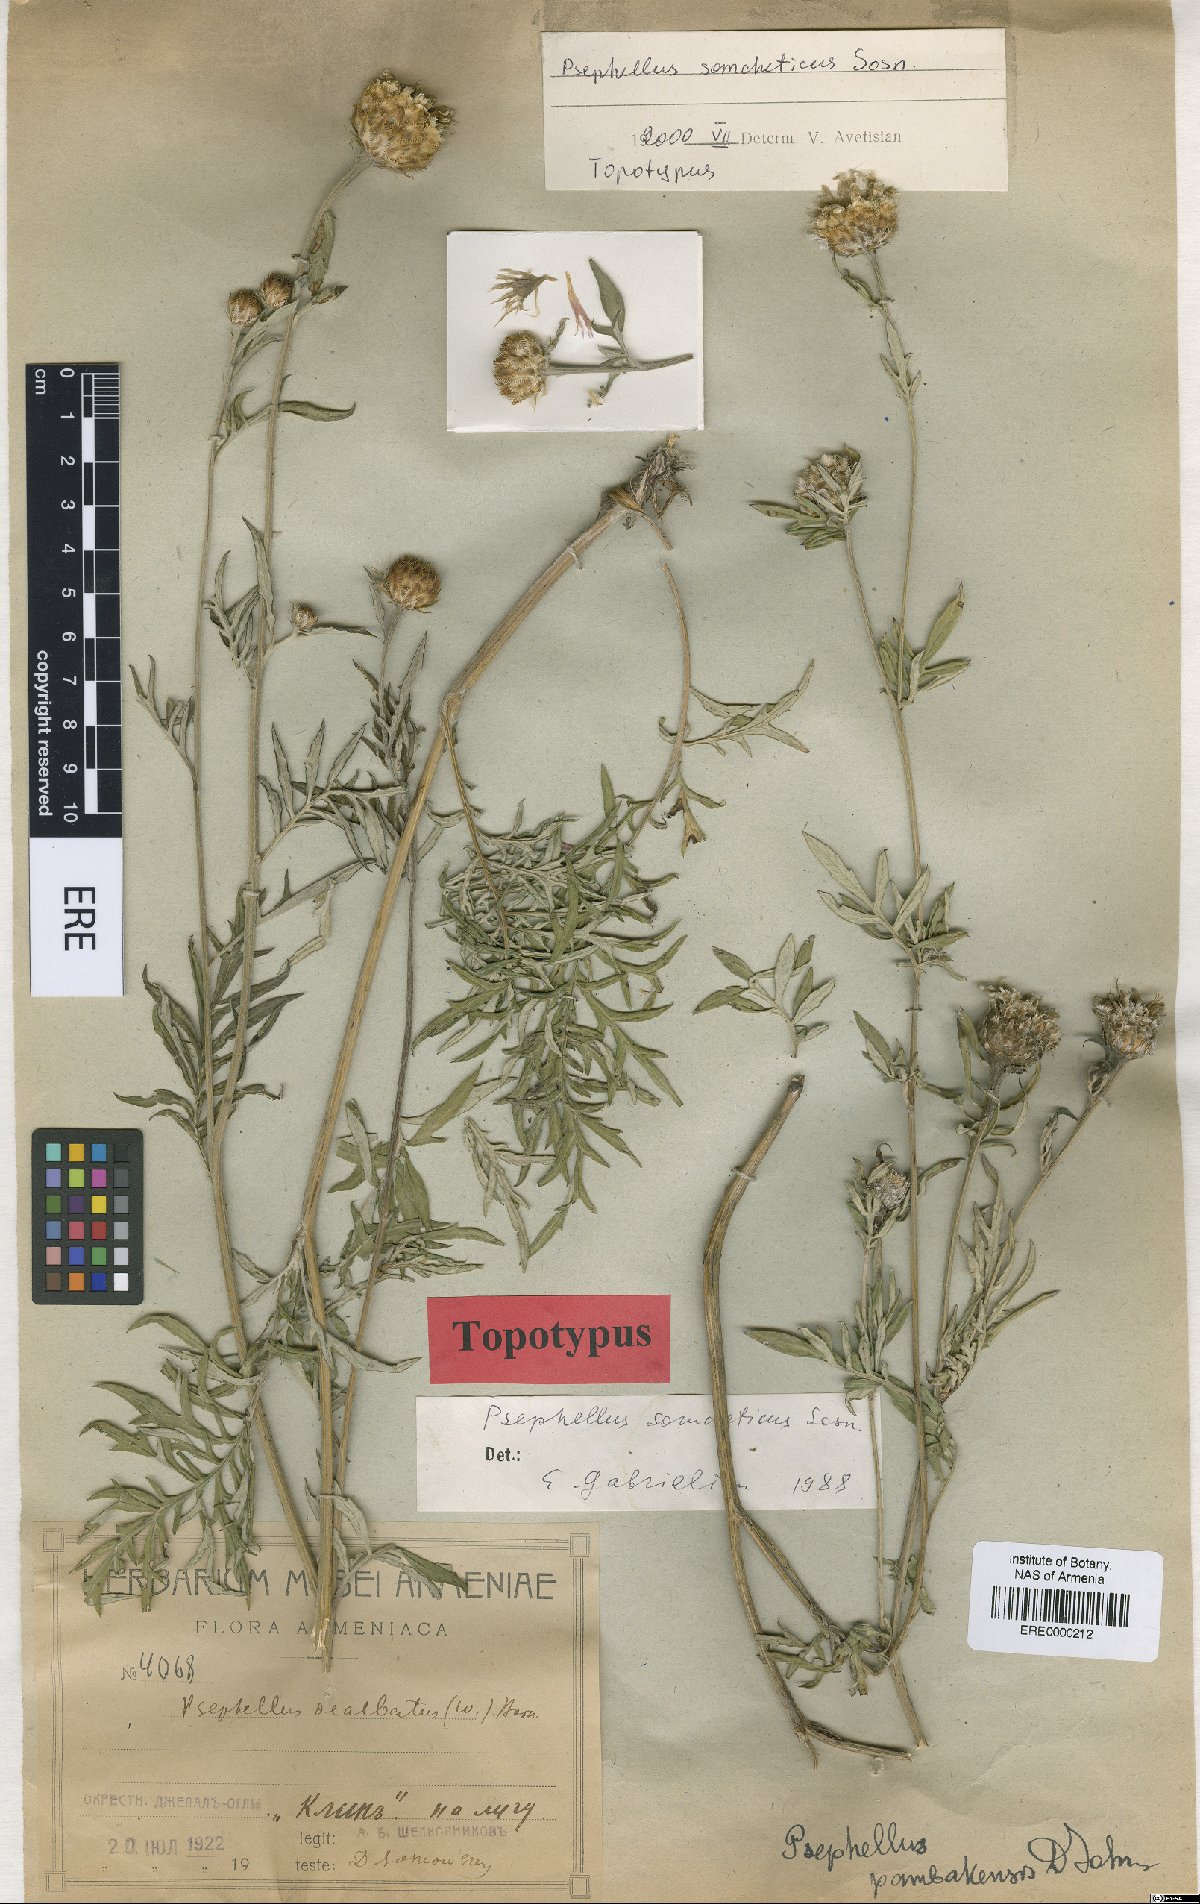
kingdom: Plantae
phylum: Tracheophyta
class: Magnoliopsida
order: Asterales
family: Asteraceae
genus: Psephellus
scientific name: Psephellus somcheticus
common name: Armenian psephellus
